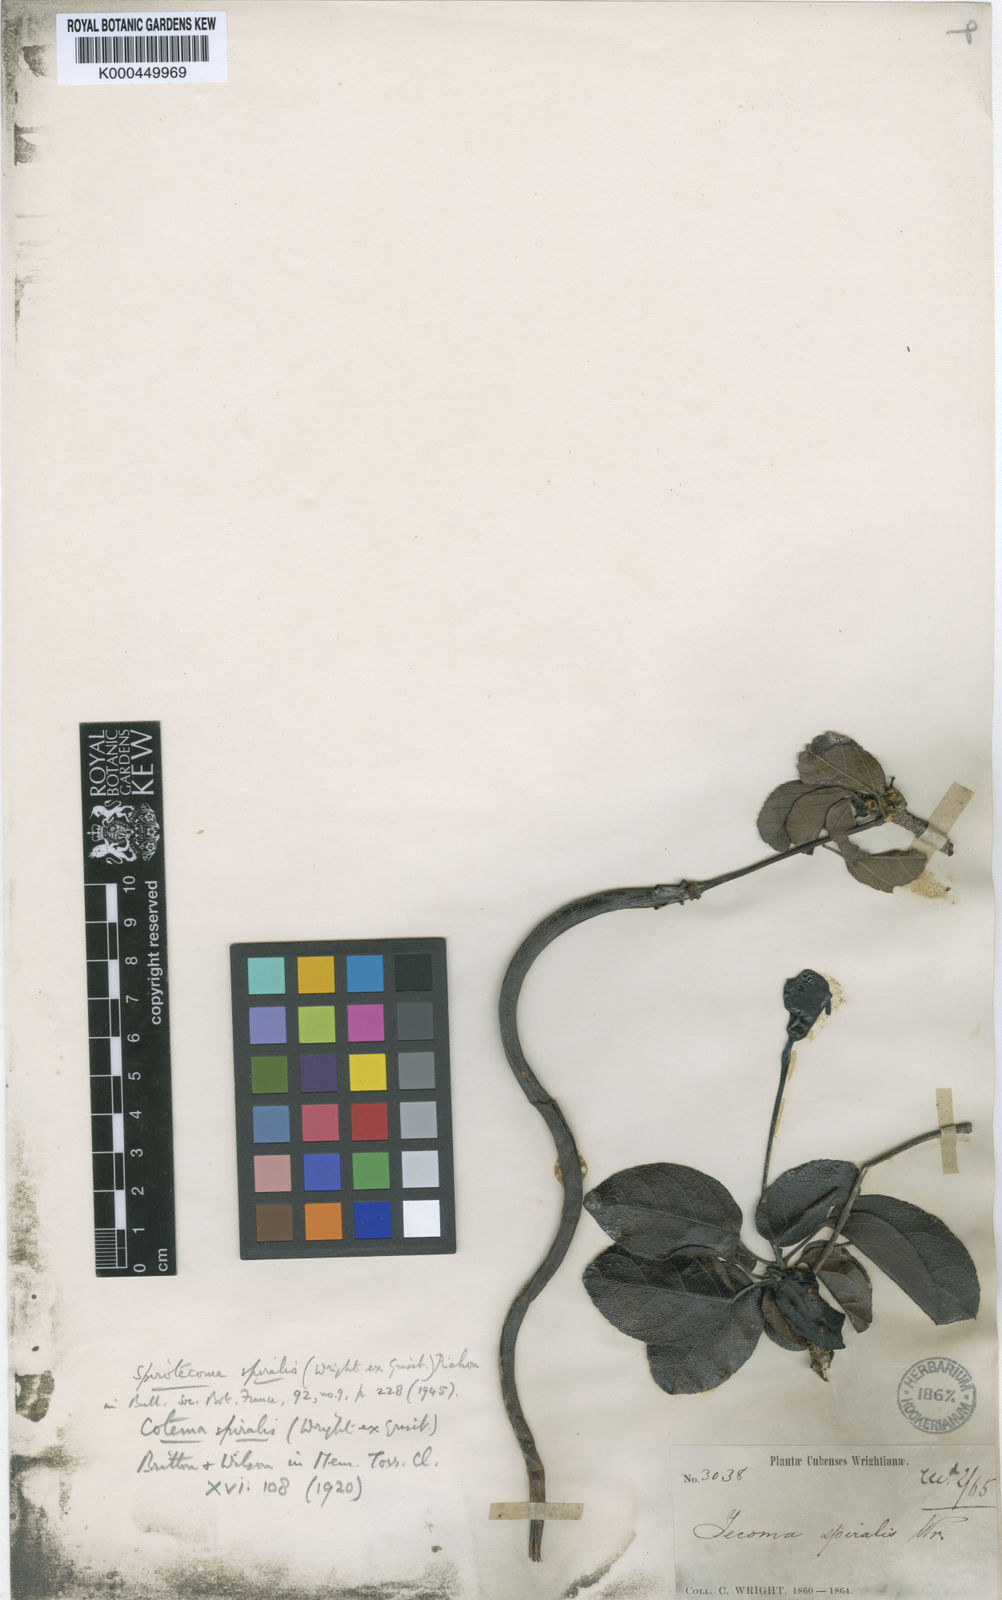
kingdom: Plantae
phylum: Tracheophyta
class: Magnoliopsida
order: Lamiales
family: Bignoniaceae
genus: Spirotecoma
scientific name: Spirotecoma spiralis
